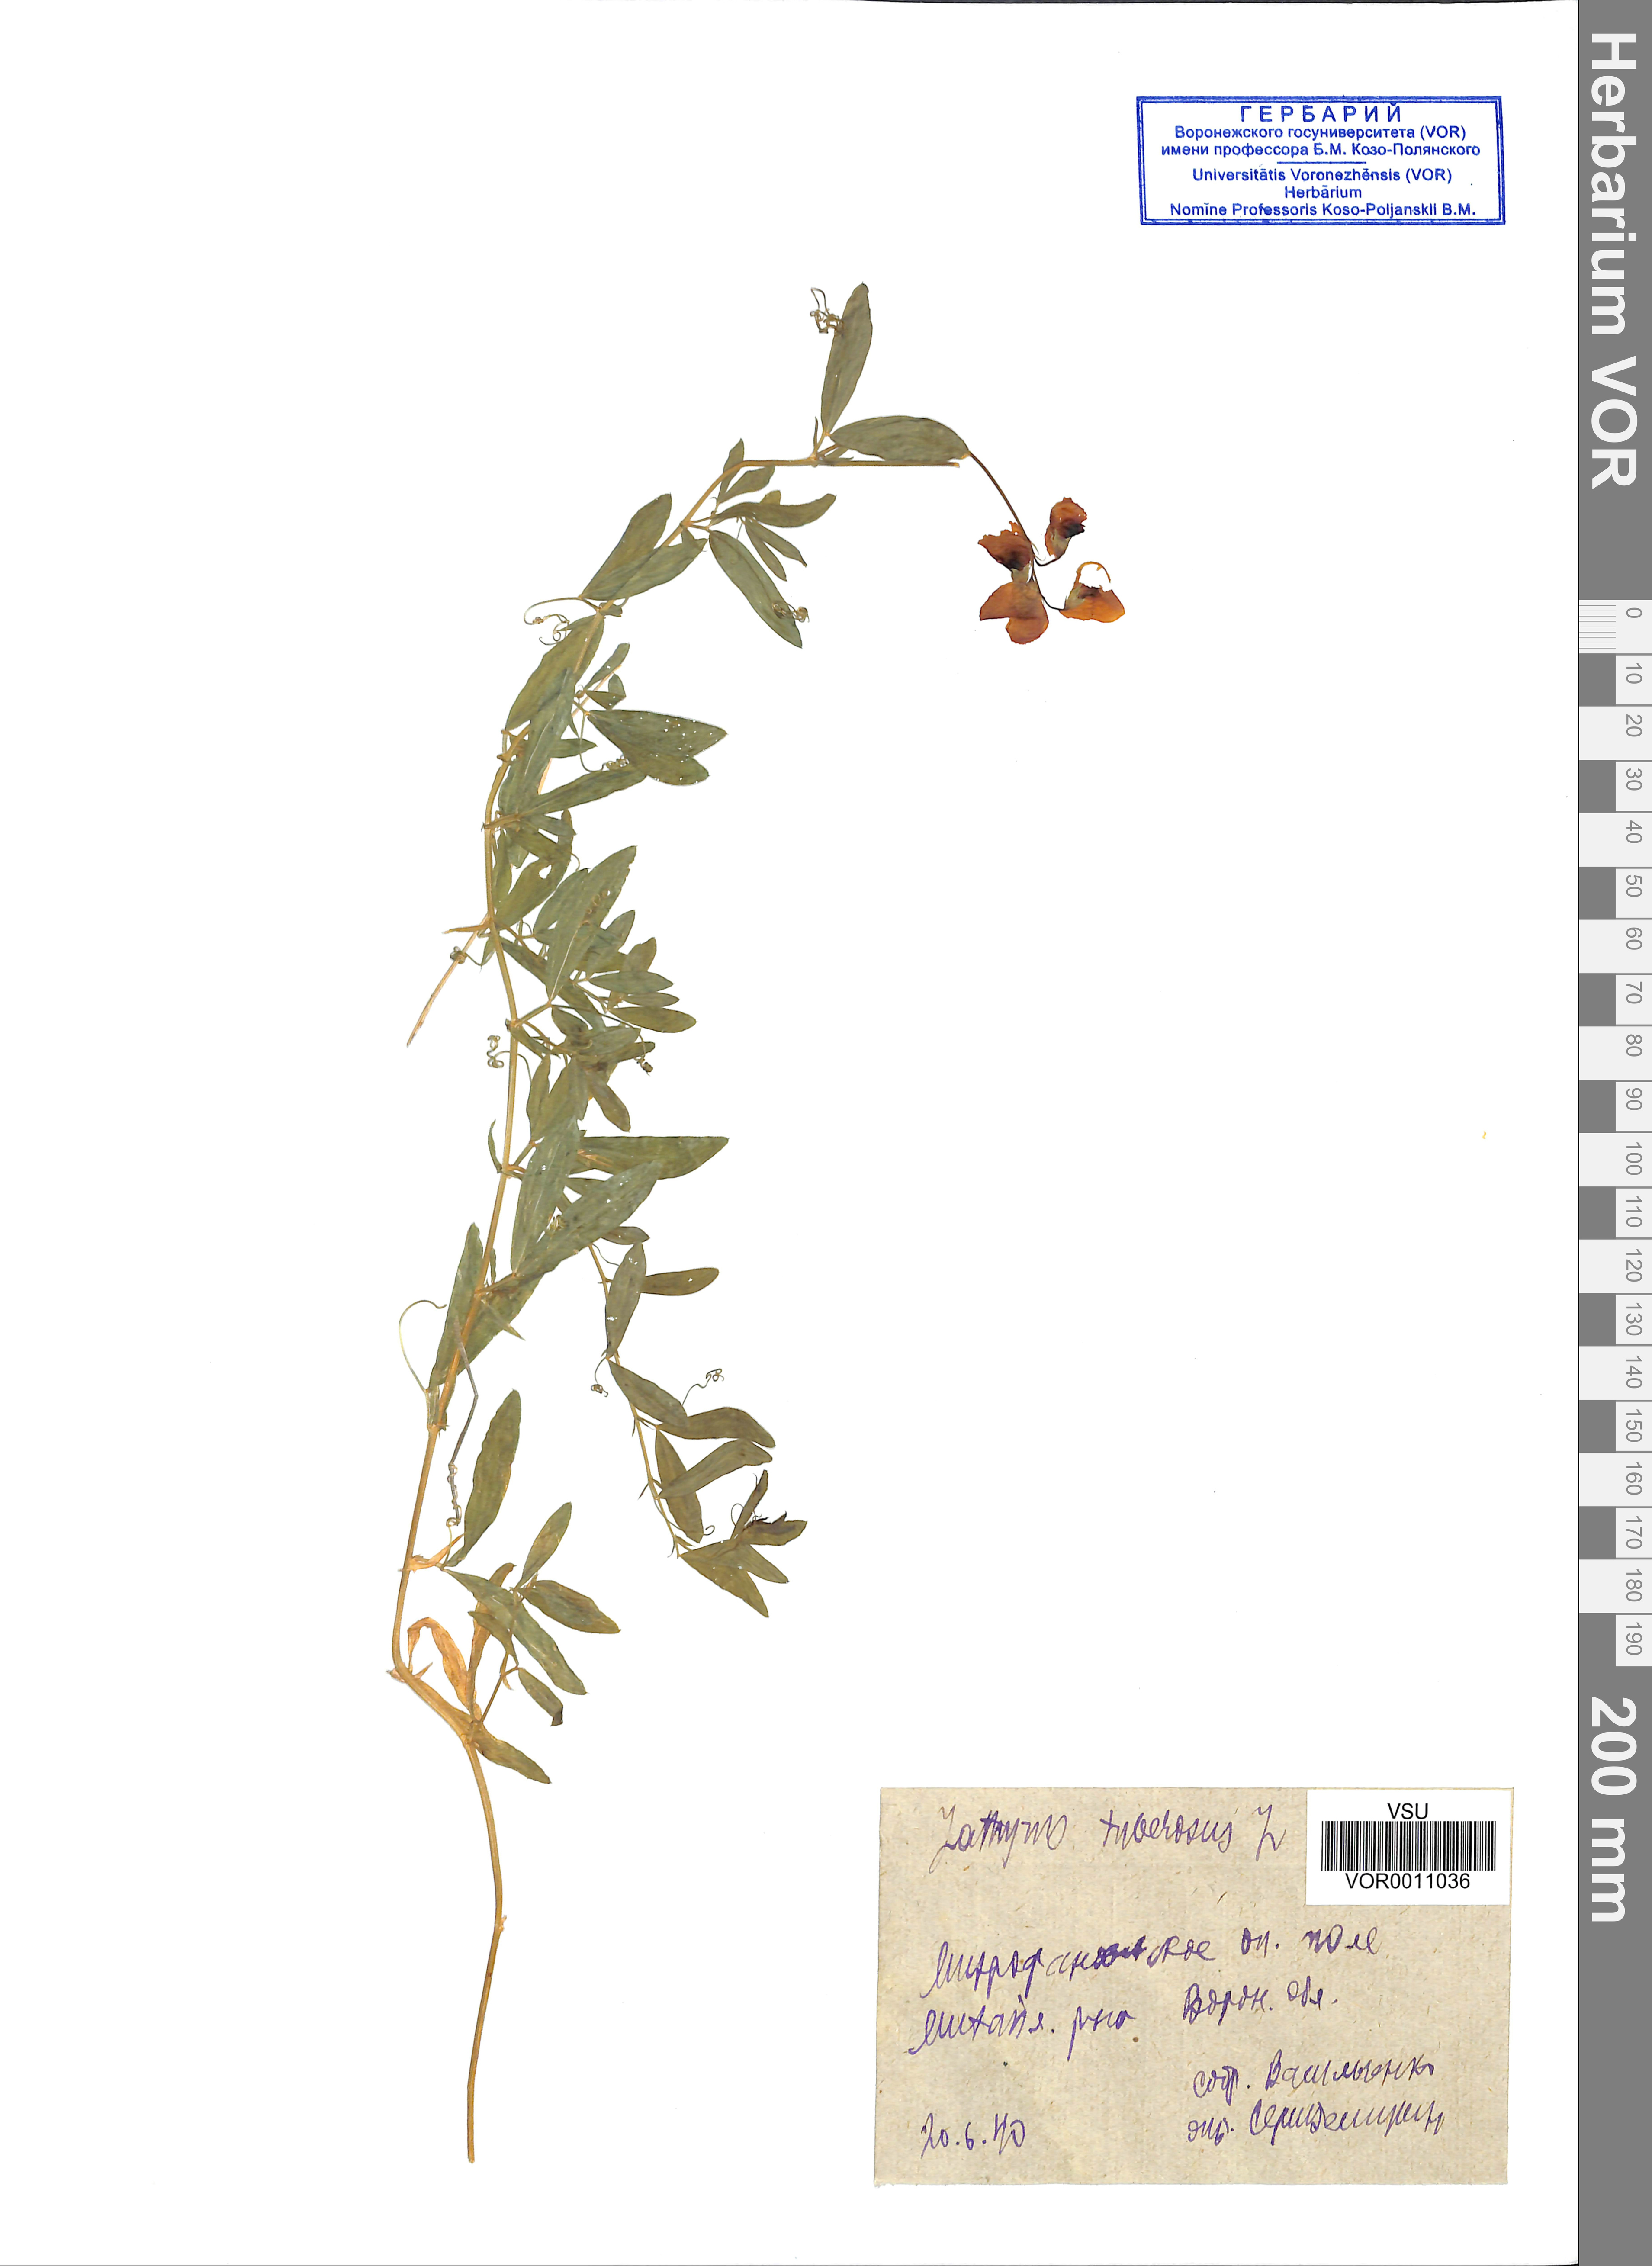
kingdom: Plantae
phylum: Tracheophyta
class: Magnoliopsida
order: Fabales
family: Fabaceae
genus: Lathyrus
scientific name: Lathyrus tuberosus
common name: Tuberous pea
